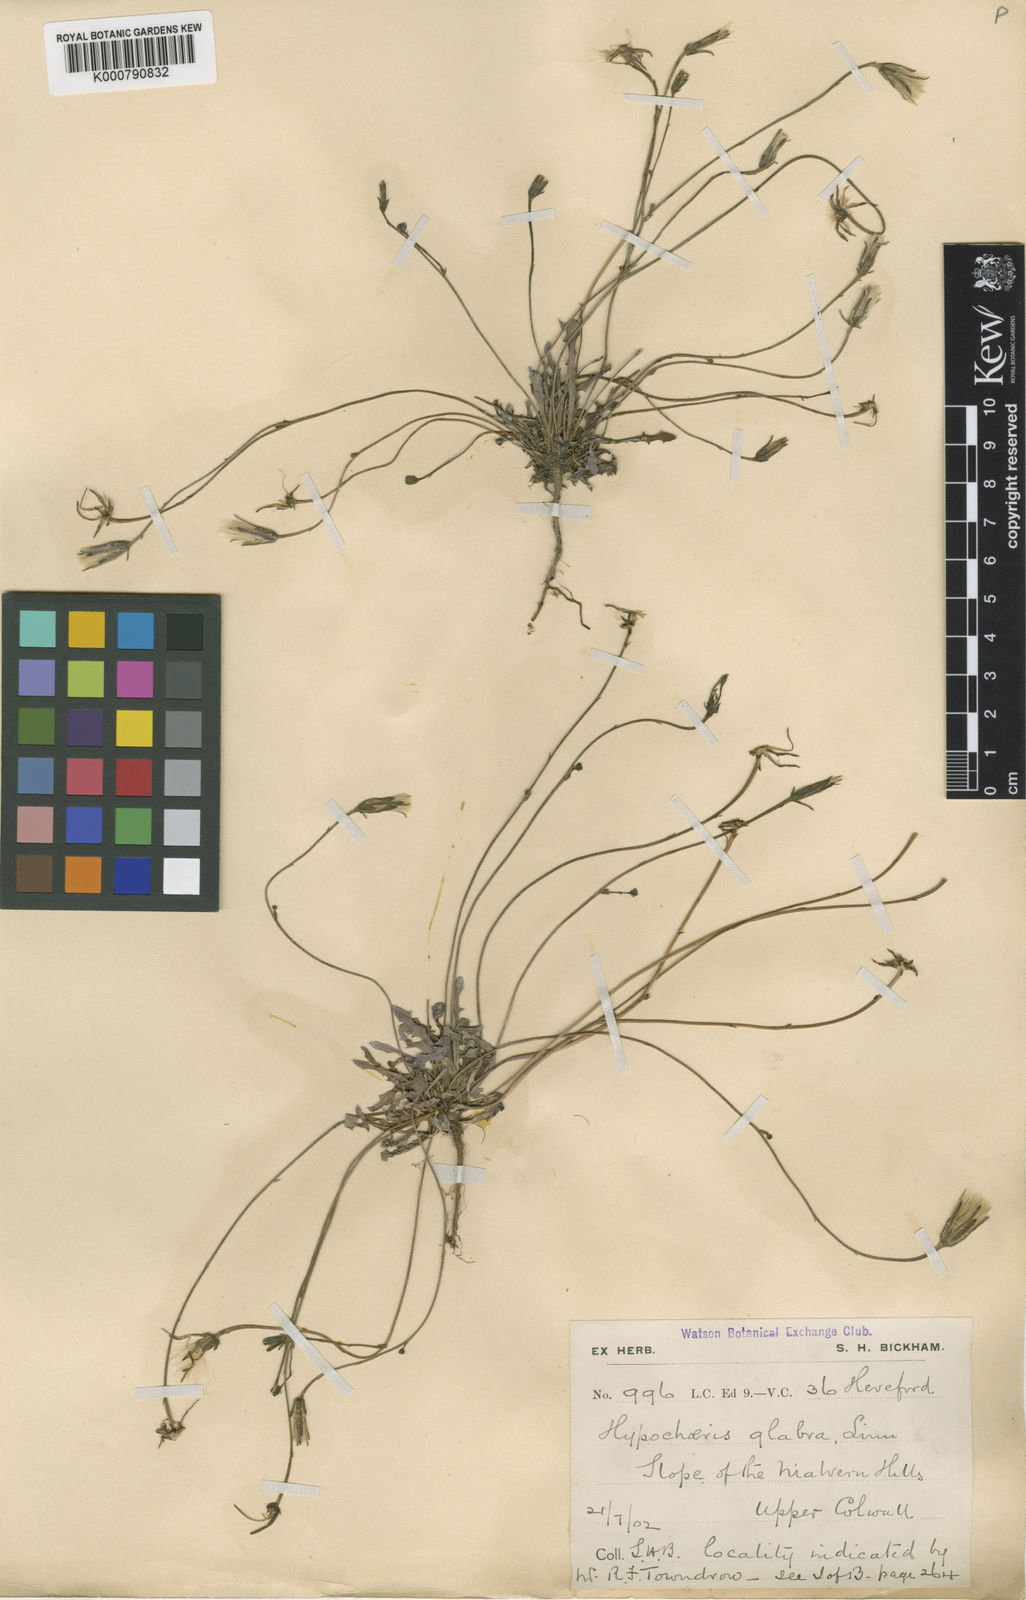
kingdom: Plantae
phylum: Tracheophyta
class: Magnoliopsida
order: Asterales
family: Asteraceae
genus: Hypochaeris
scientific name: Hypochaeris glabra
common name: Smooth catsear
